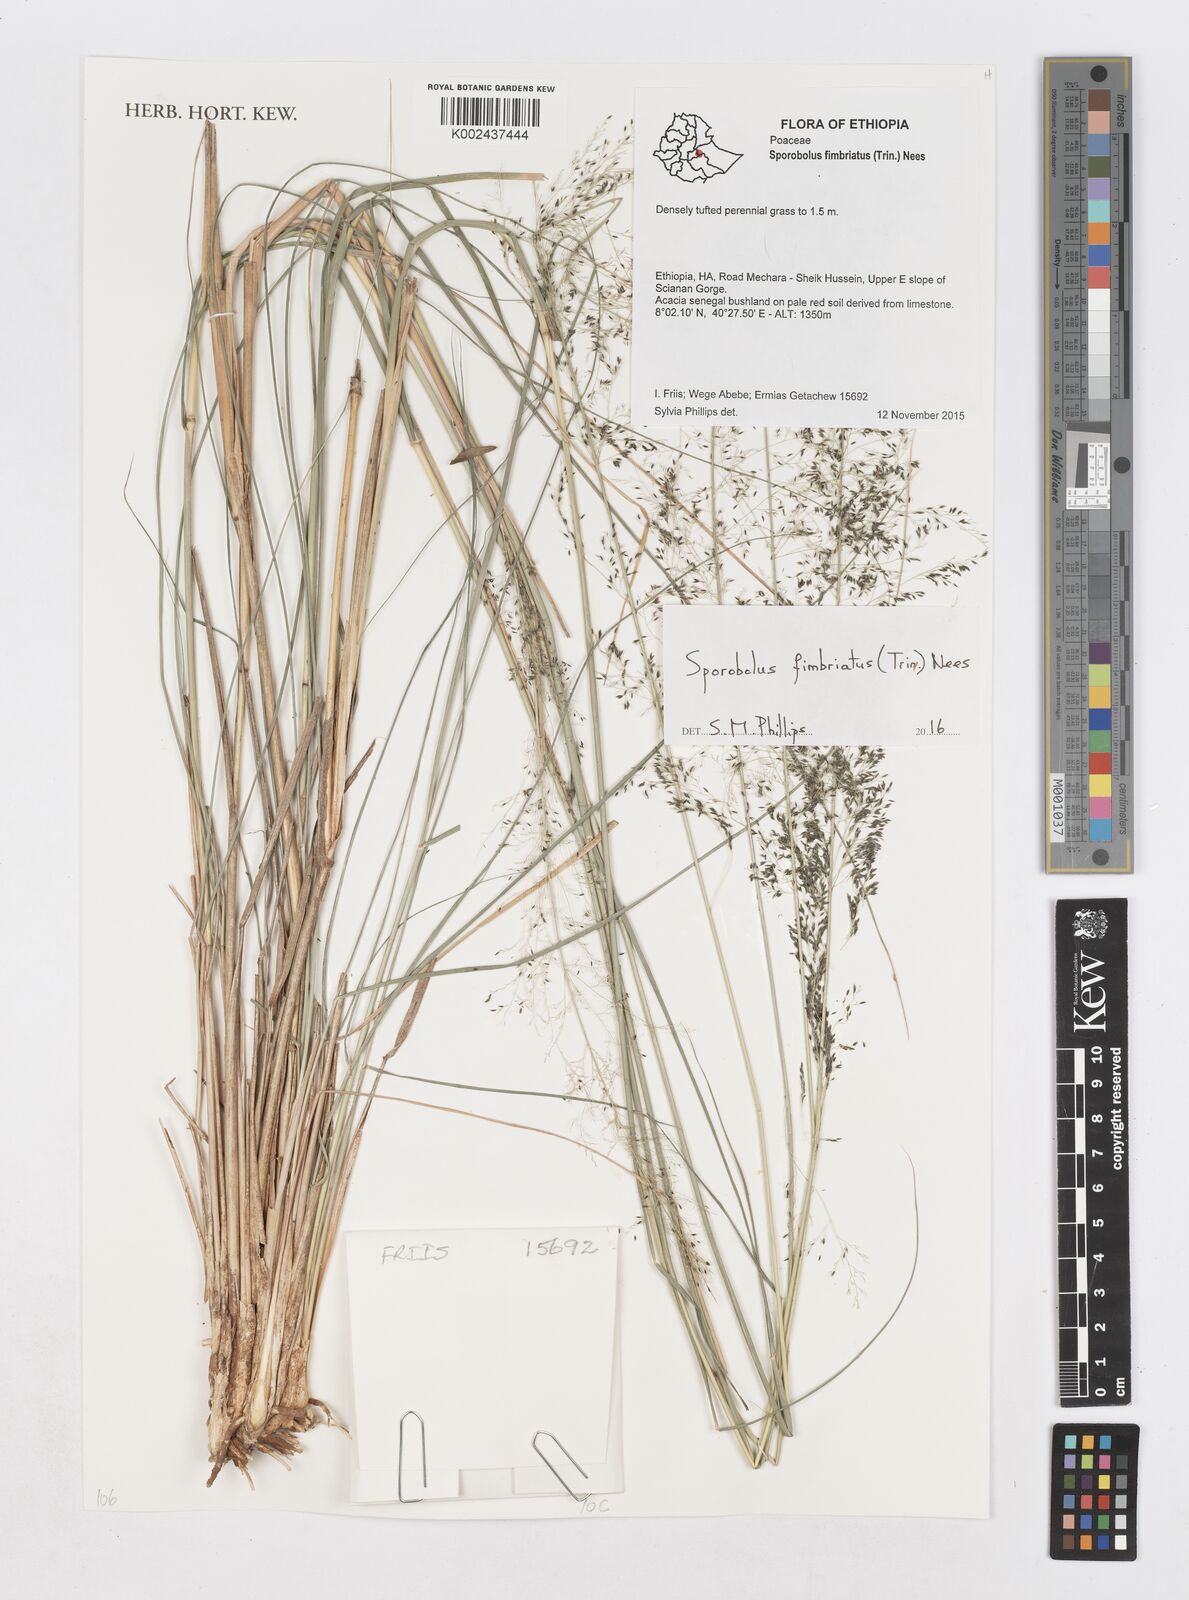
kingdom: Plantae
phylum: Tracheophyta
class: Liliopsida
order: Poales
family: Poaceae
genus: Sporobolus
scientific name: Sporobolus fimbriatus
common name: Fringed dropseed
